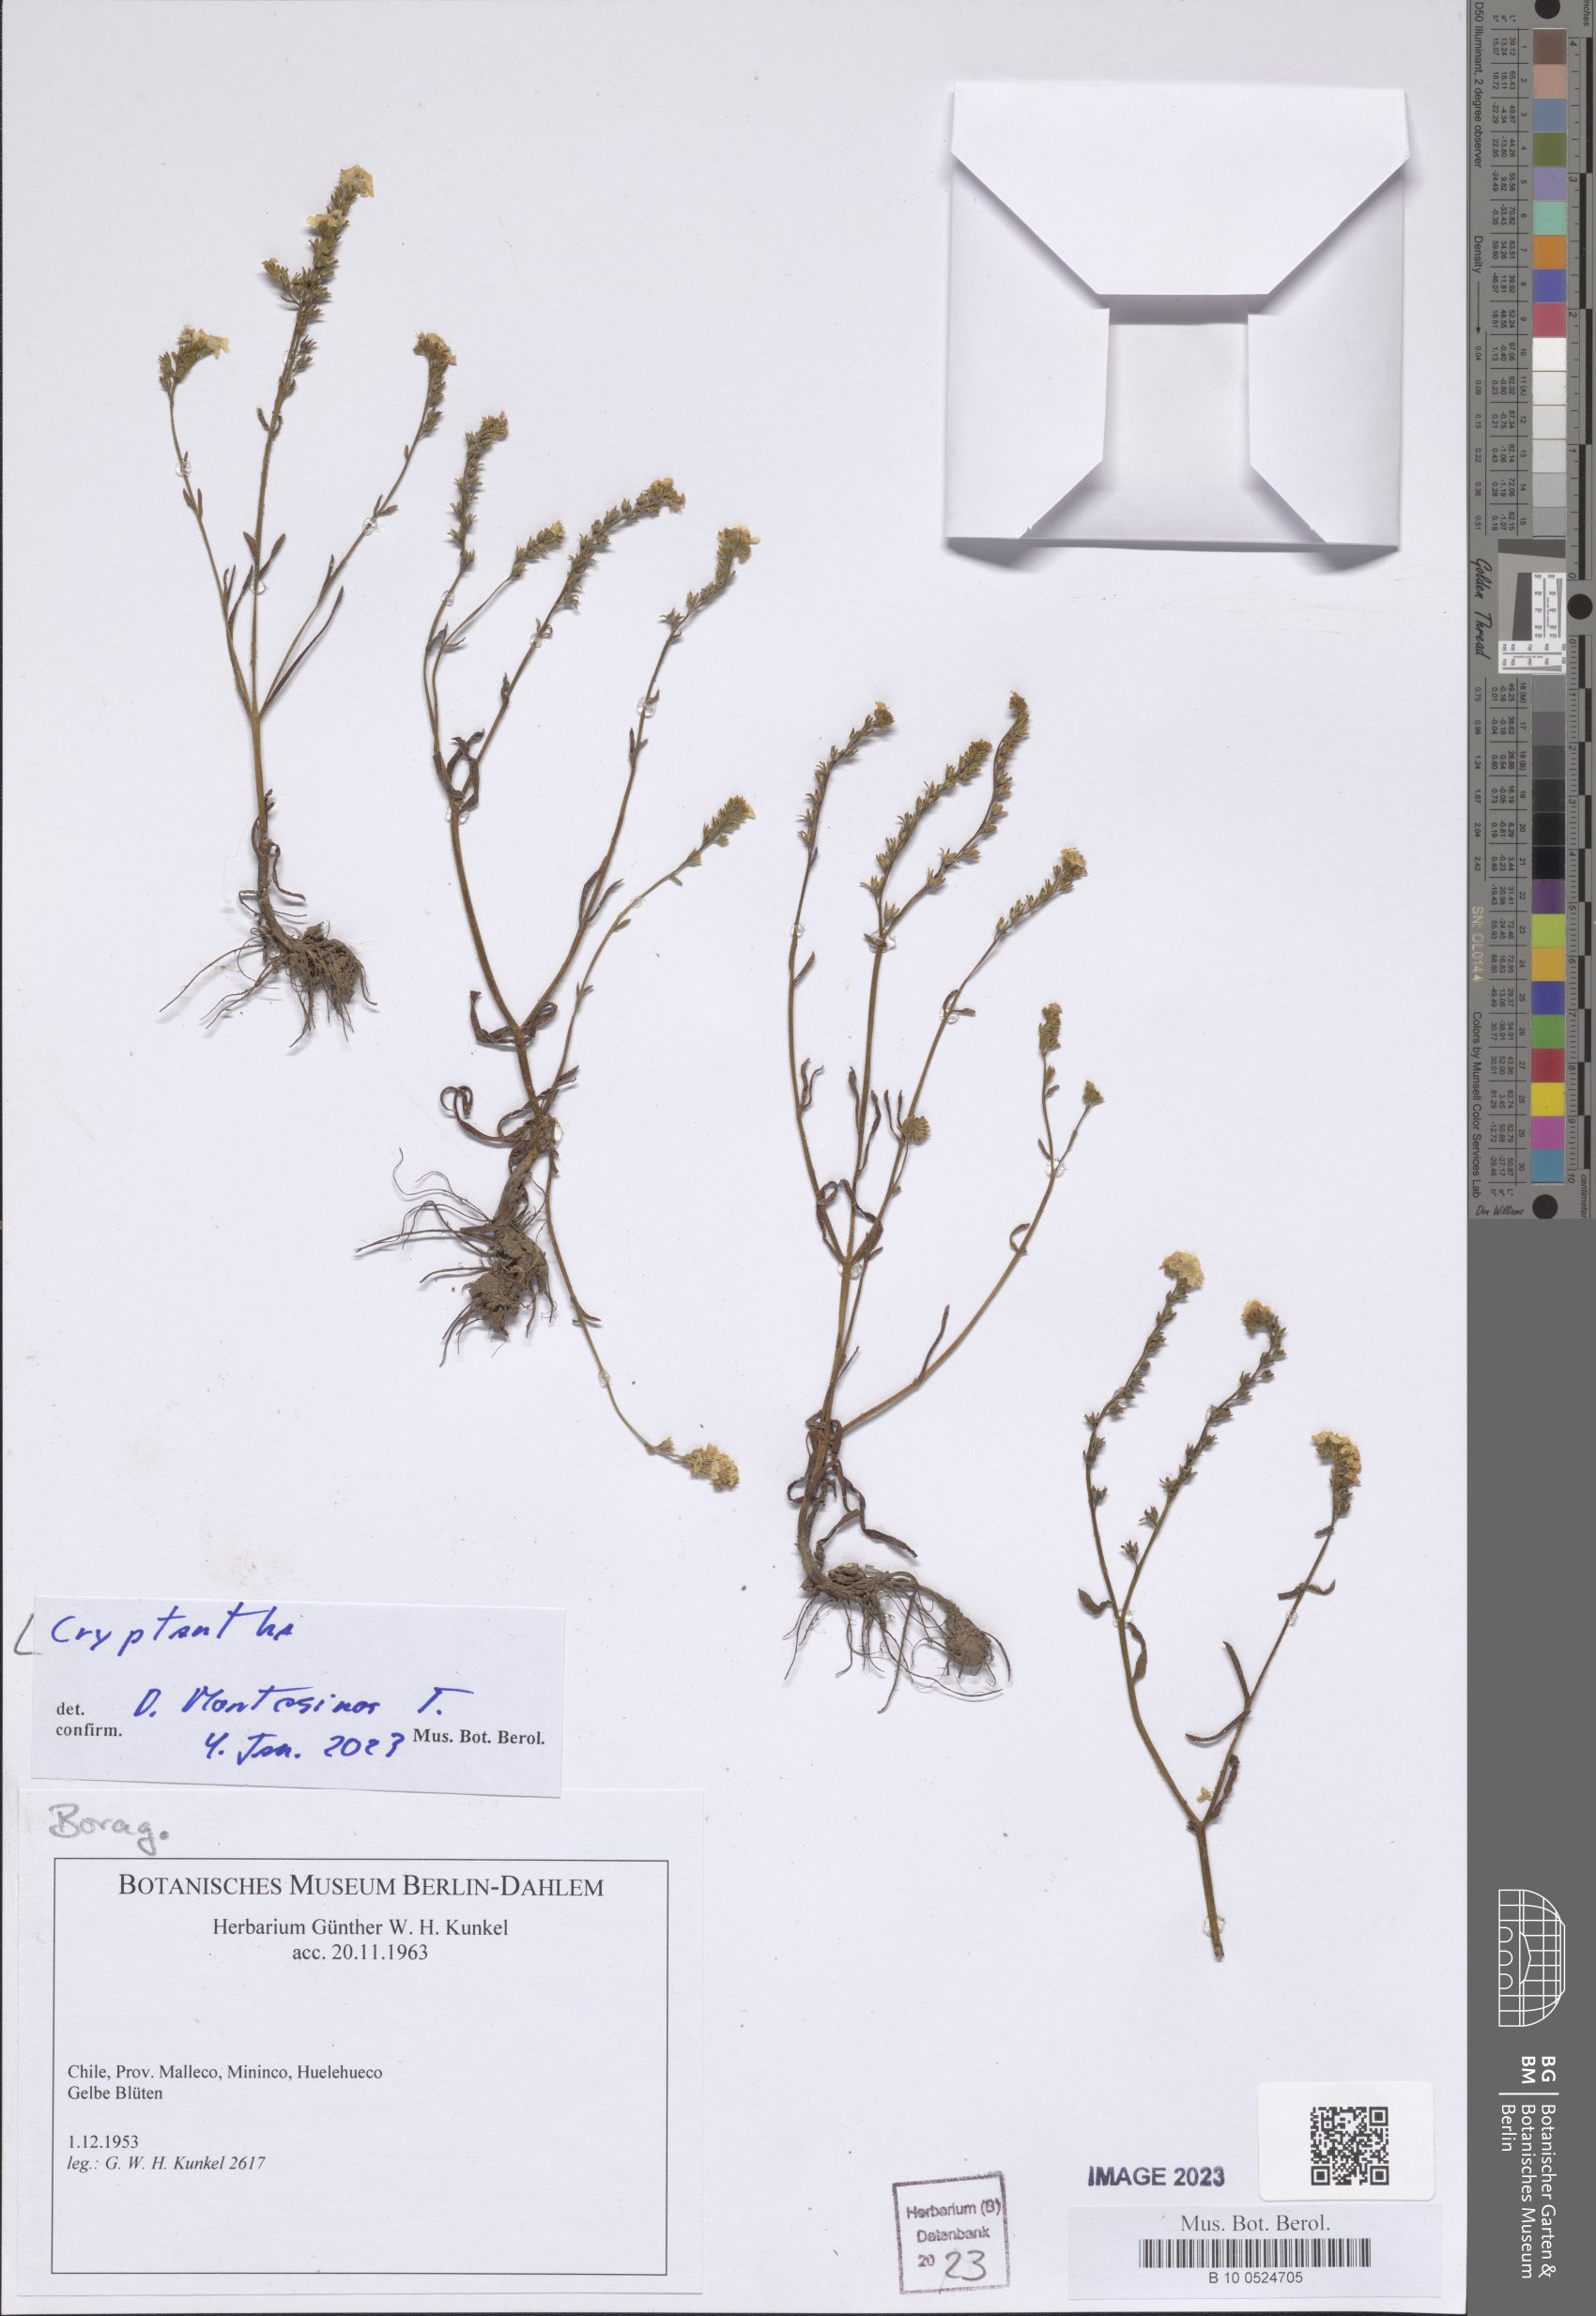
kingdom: Plantae
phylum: Tracheophyta
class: Magnoliopsida
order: Boraginales
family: Boraginaceae
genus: Cryptantha
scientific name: Cryptantha
